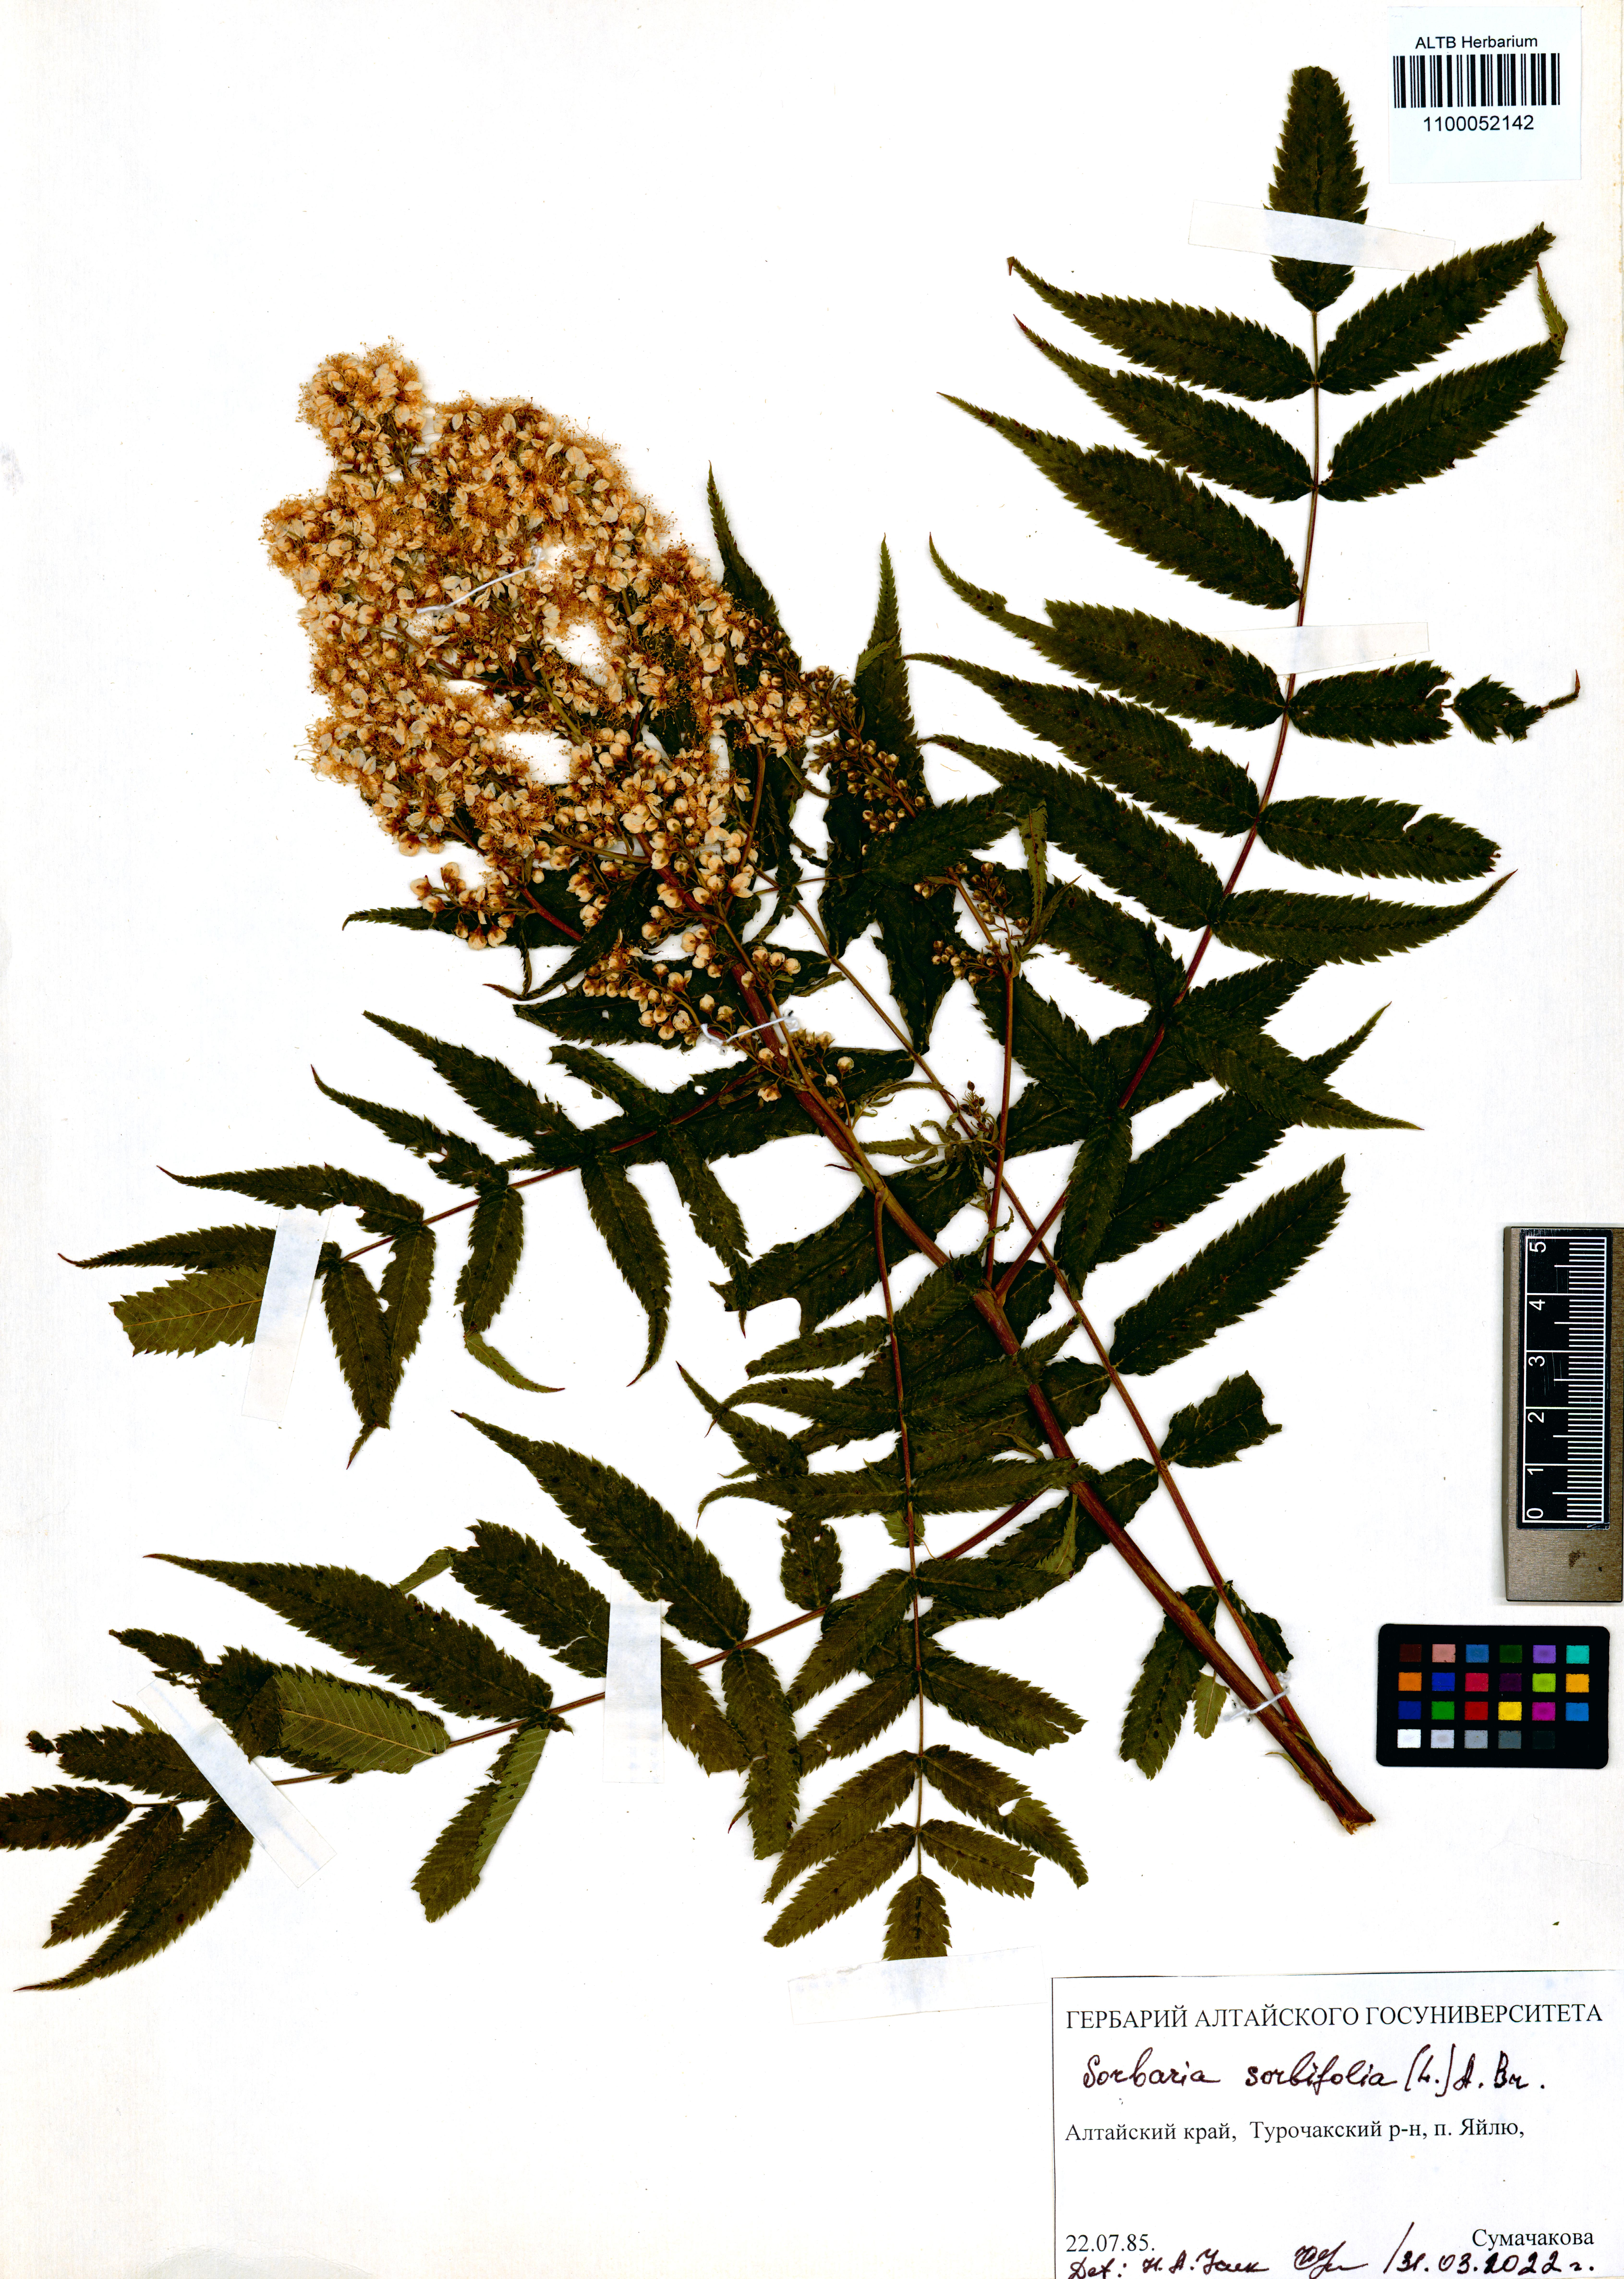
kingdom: Plantae
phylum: Tracheophyta
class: Magnoliopsida
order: Rosales
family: Rosaceae
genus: Sorbaria
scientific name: Sorbaria sorbifolia
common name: False spiraea
